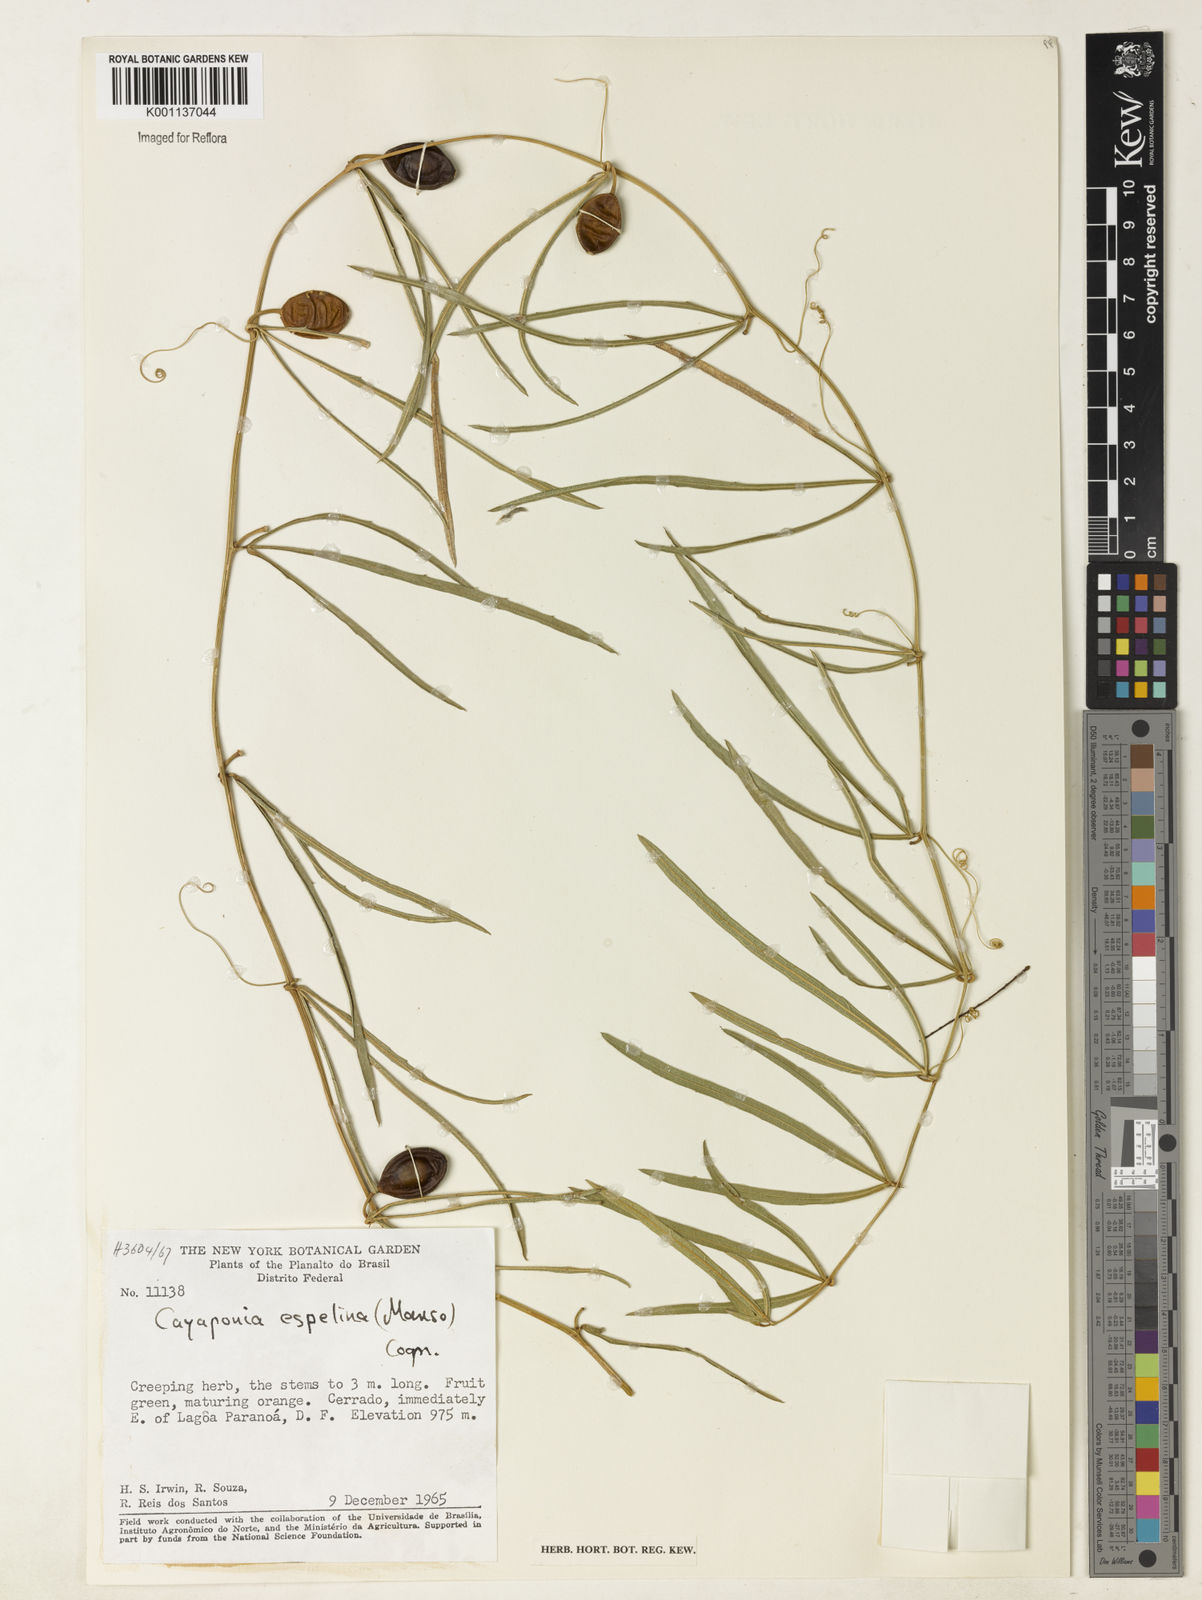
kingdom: Plantae
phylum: Tracheophyta
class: Magnoliopsida
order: Cucurbitales
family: Cucurbitaceae
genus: Cayaponia
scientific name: Cayaponia espelina
